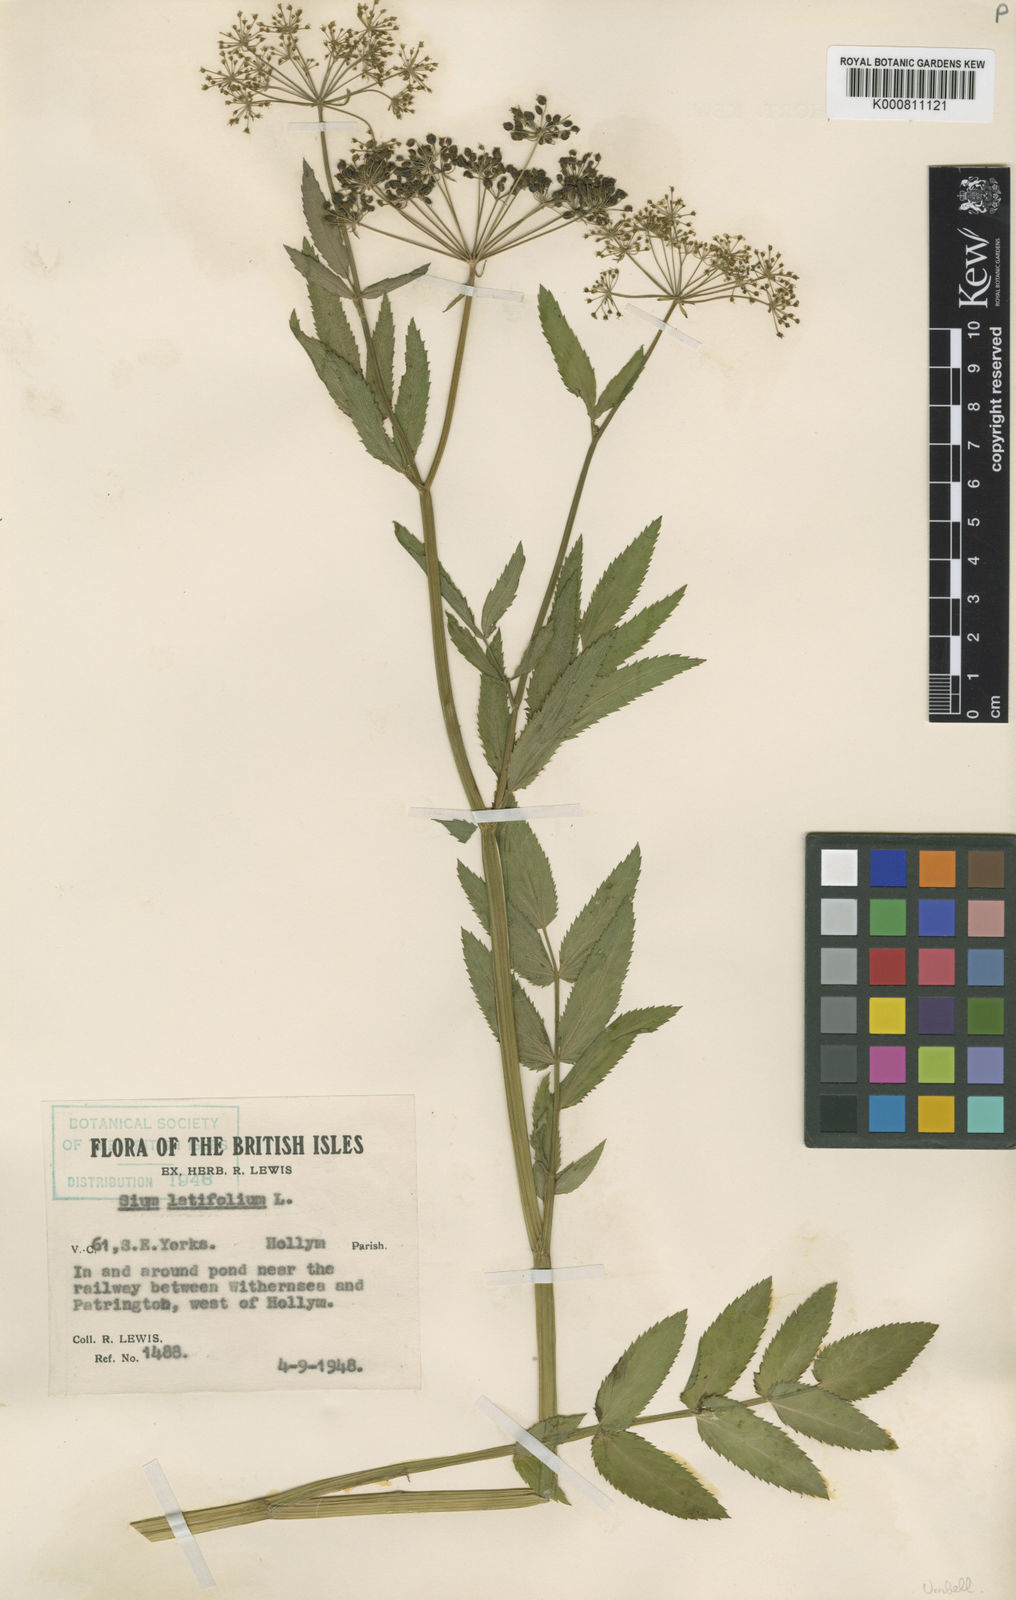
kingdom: Plantae
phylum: Tracheophyta
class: Magnoliopsida
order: Apiales
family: Apiaceae
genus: Sium
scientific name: Sium latifolium
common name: Greater water-parsnip
